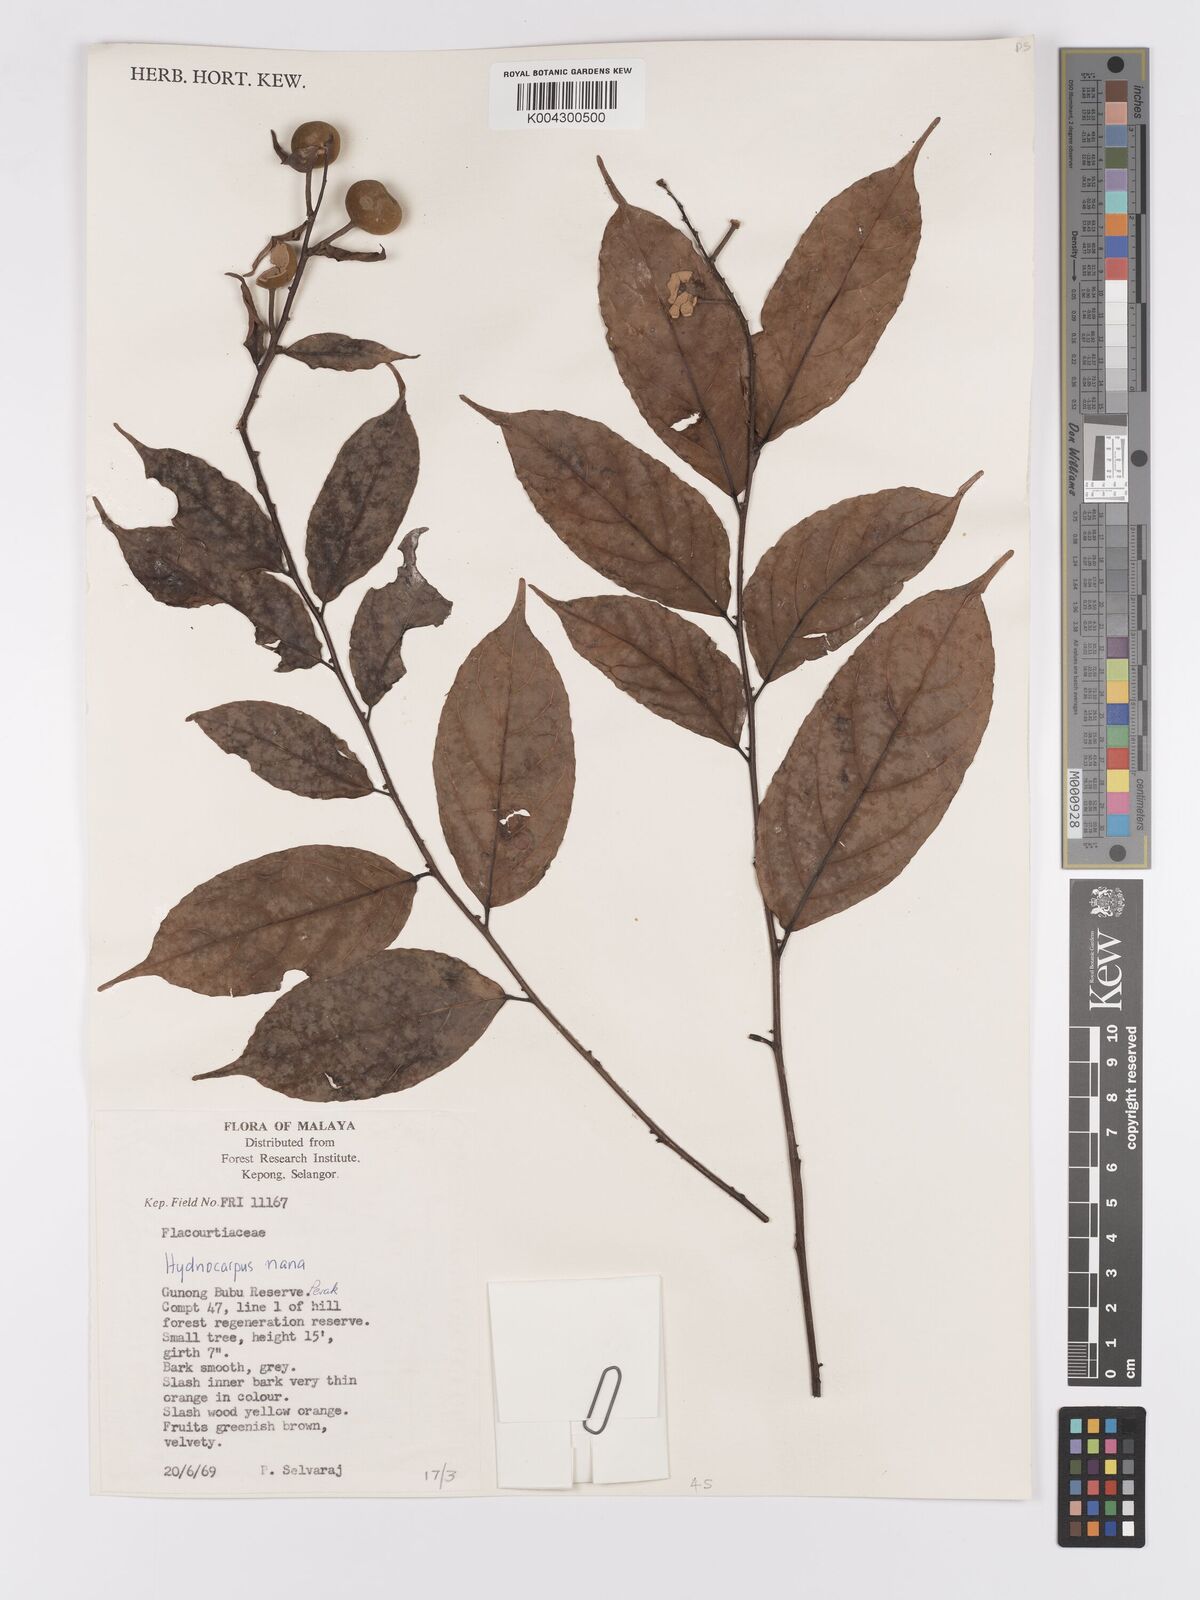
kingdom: Plantae
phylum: Tracheophyta
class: Magnoliopsida
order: Malpighiales
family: Achariaceae
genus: Hydnocarpus
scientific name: Hydnocarpus nanus
